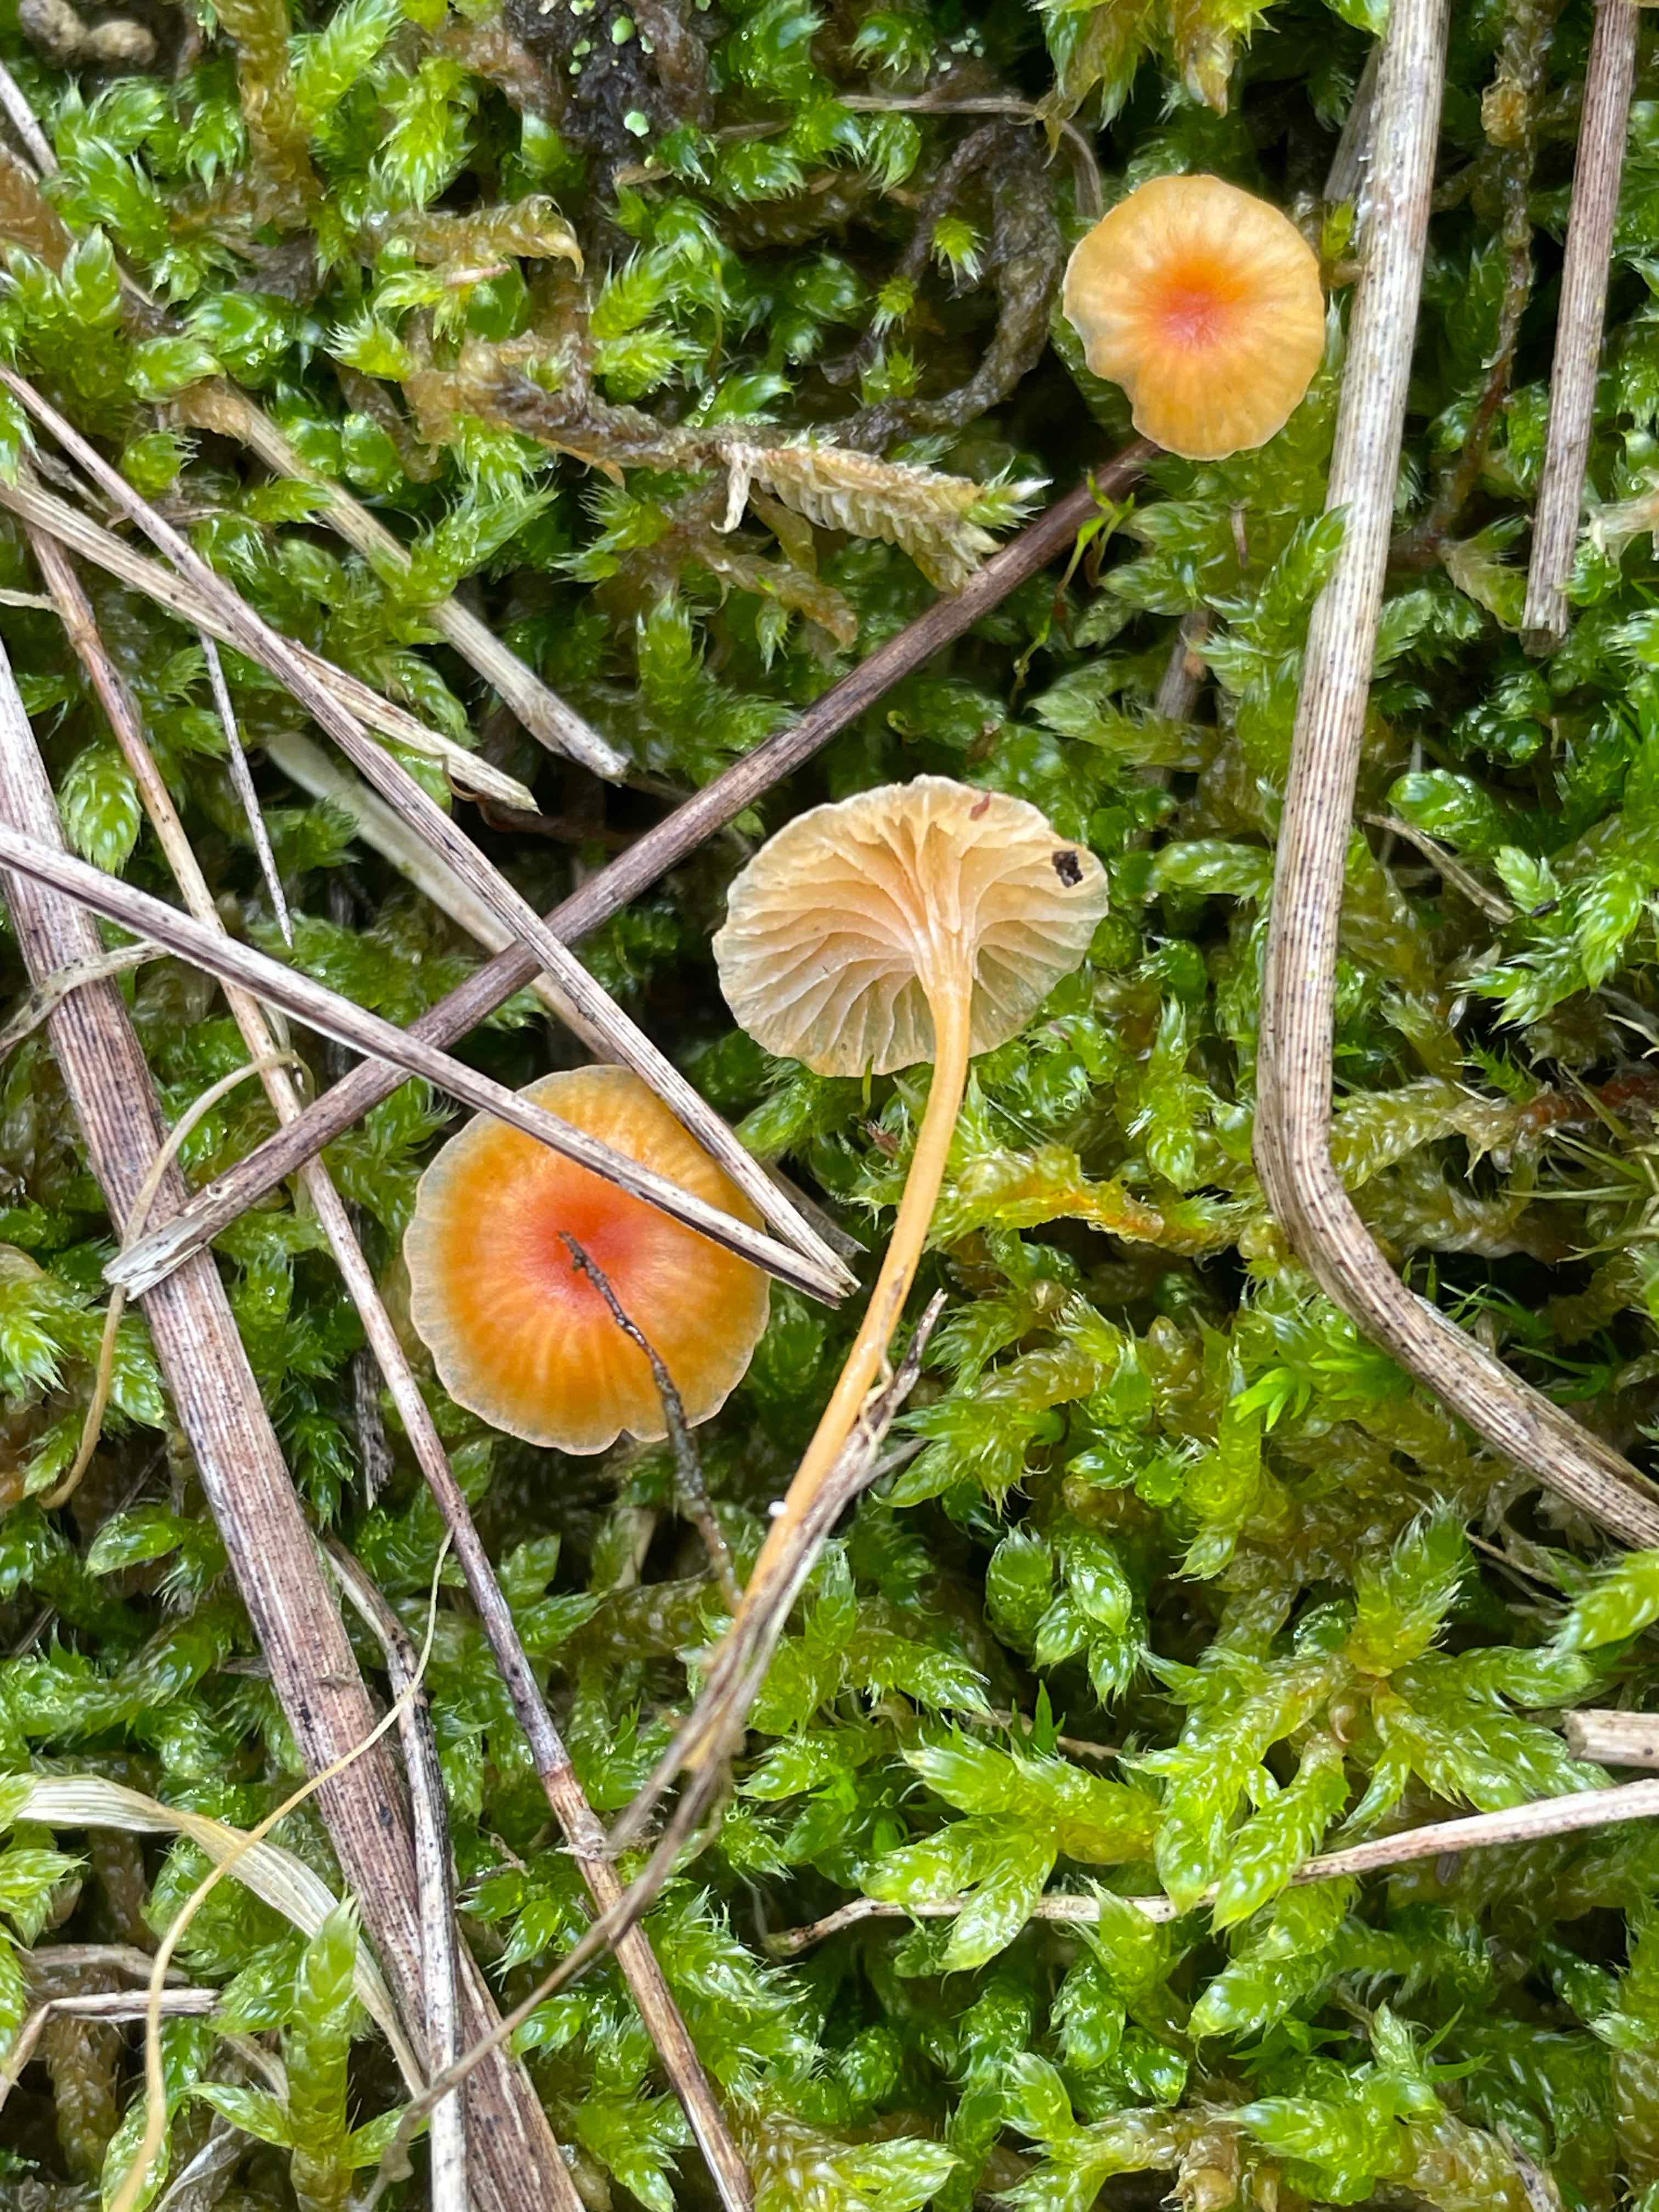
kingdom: Fungi
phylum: Basidiomycota
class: Agaricomycetes
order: Hymenochaetales
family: Rickenellaceae
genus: Rickenella
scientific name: Rickenella fibula
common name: orange mosnavlehat
